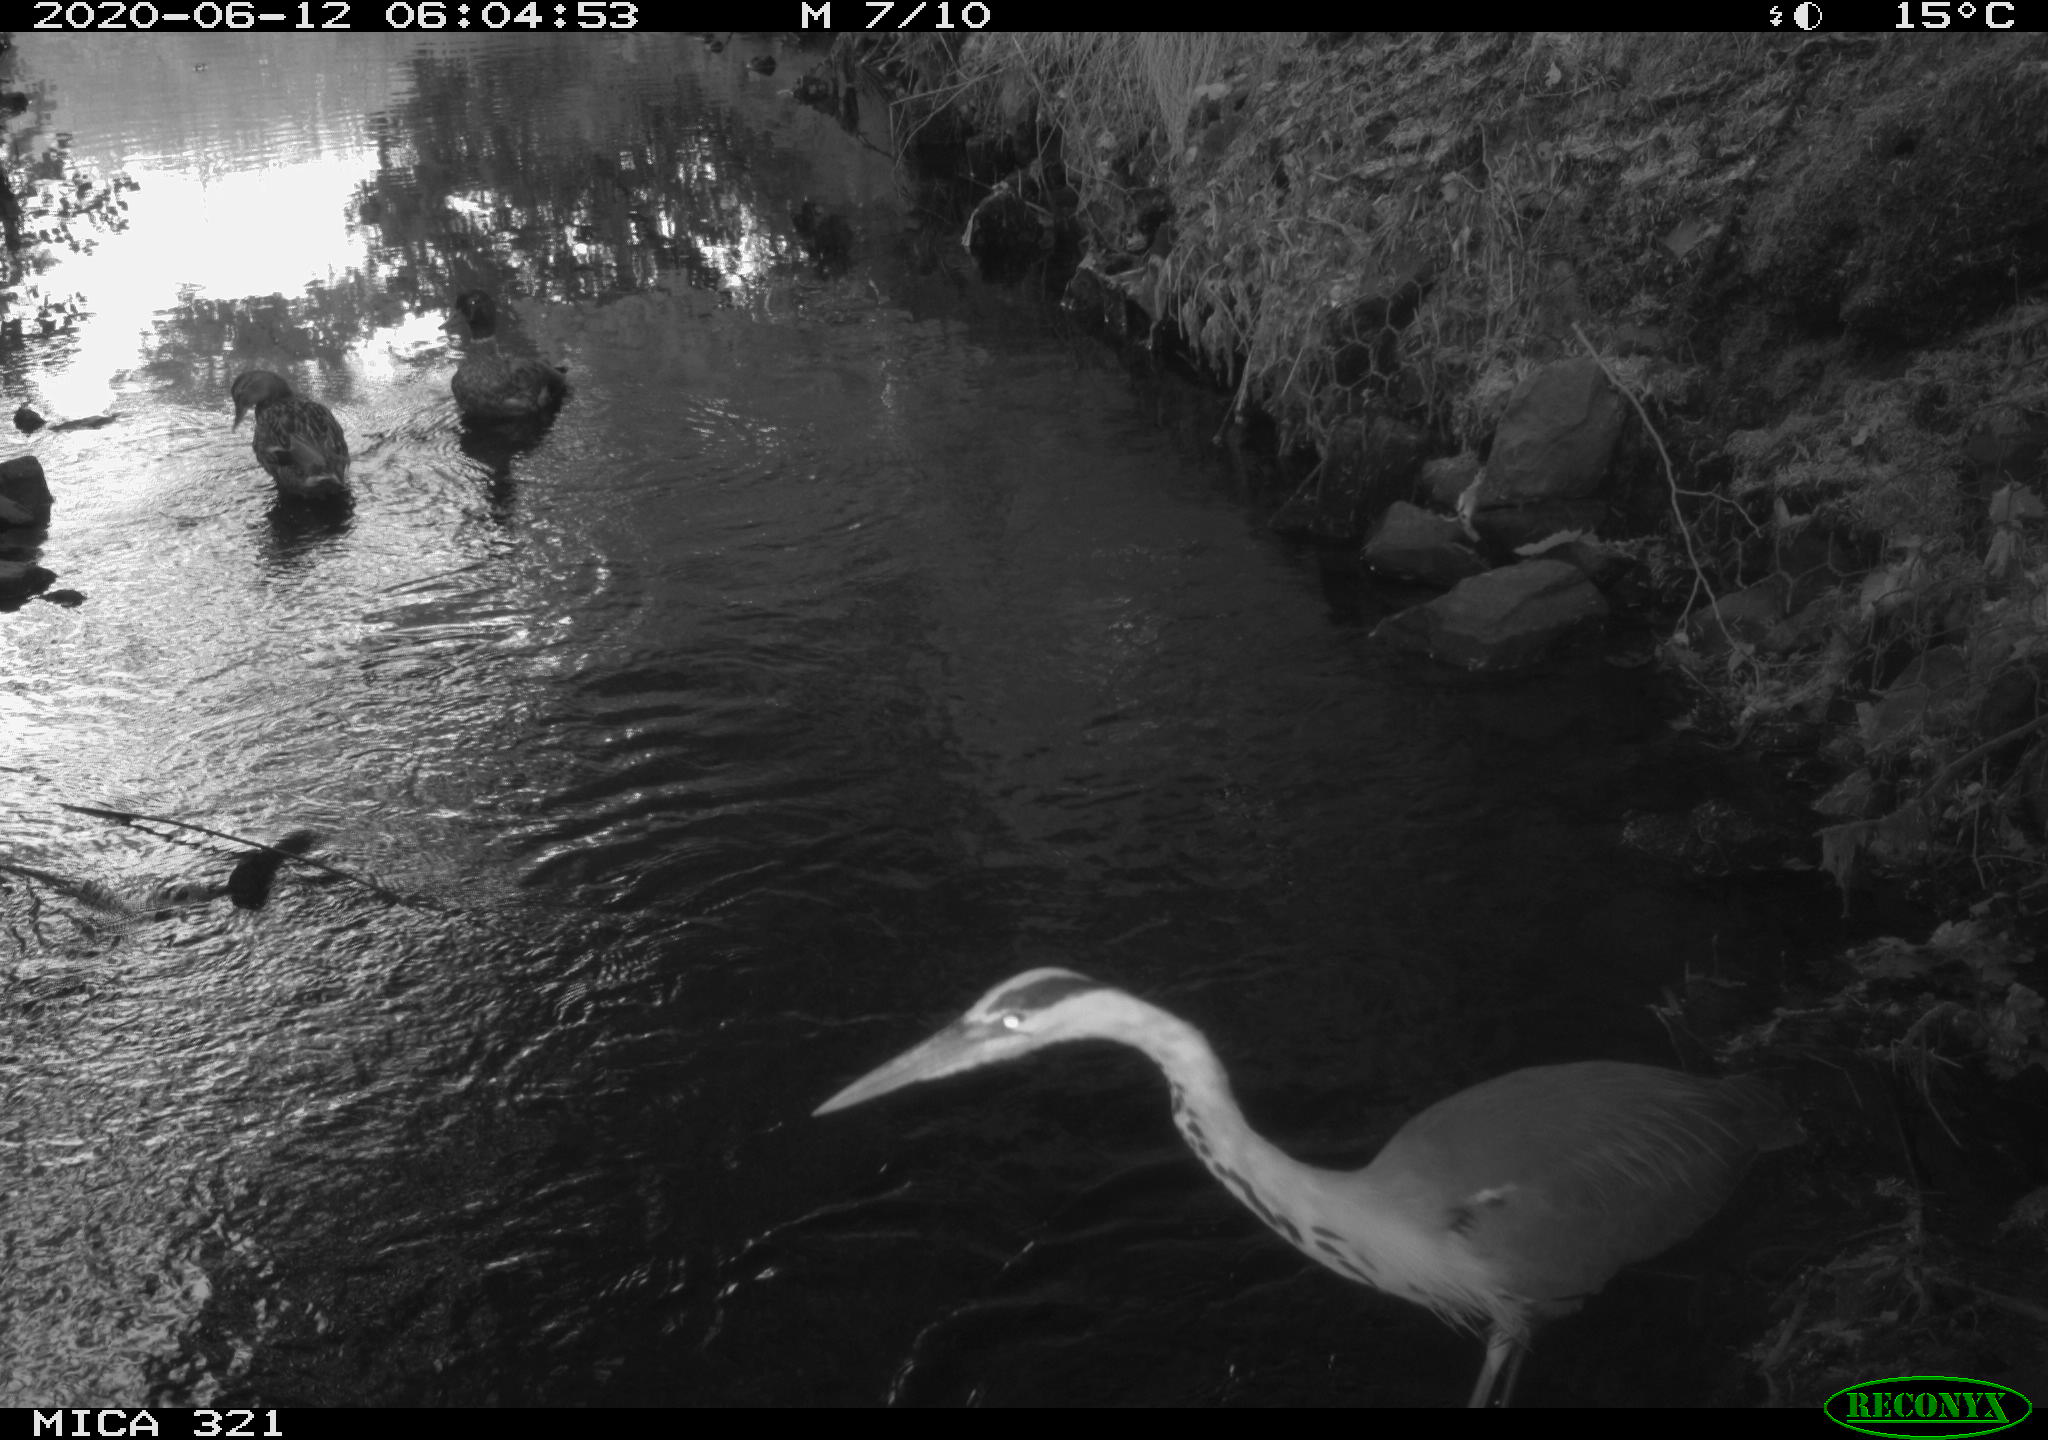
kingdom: Animalia
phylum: Chordata
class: Aves
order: Pelecaniformes
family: Ardeidae
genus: Ardea
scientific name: Ardea cinerea
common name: Grey heron
